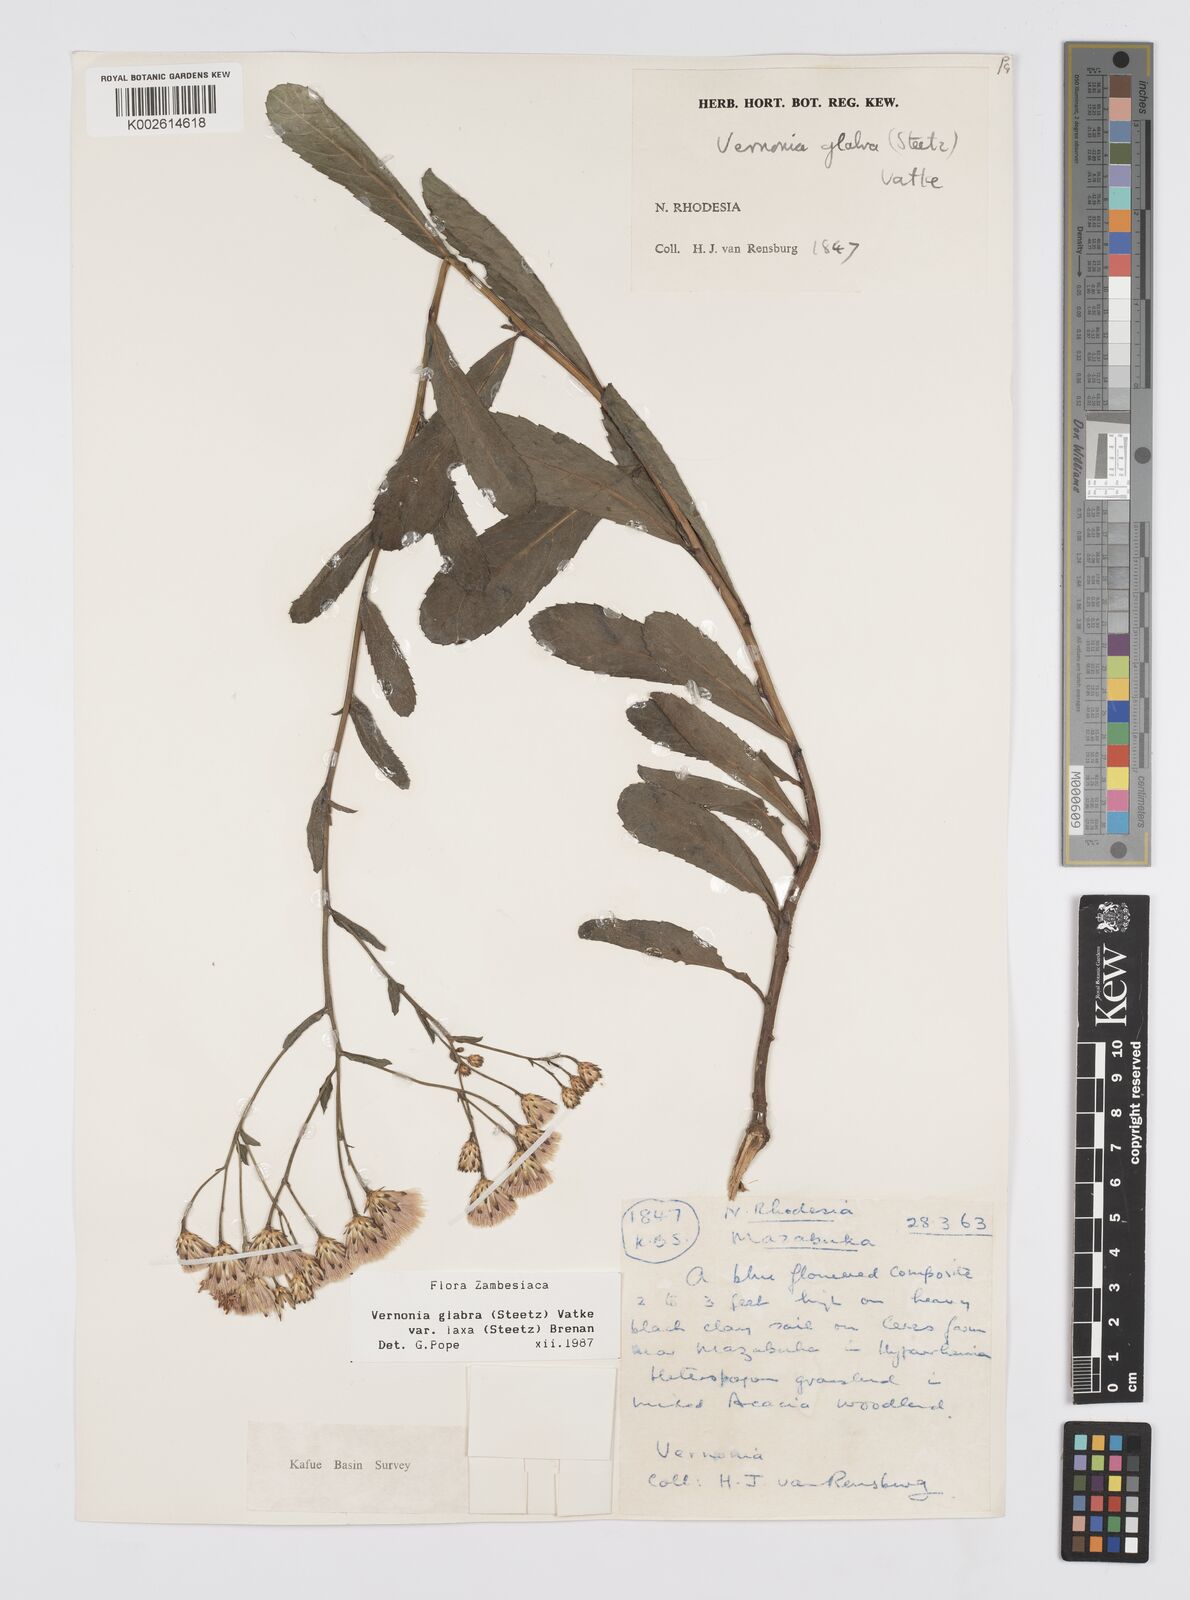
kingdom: Plantae
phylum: Tracheophyta
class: Magnoliopsida
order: Asterales
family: Asteraceae
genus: Linzia
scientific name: Linzia glabra
